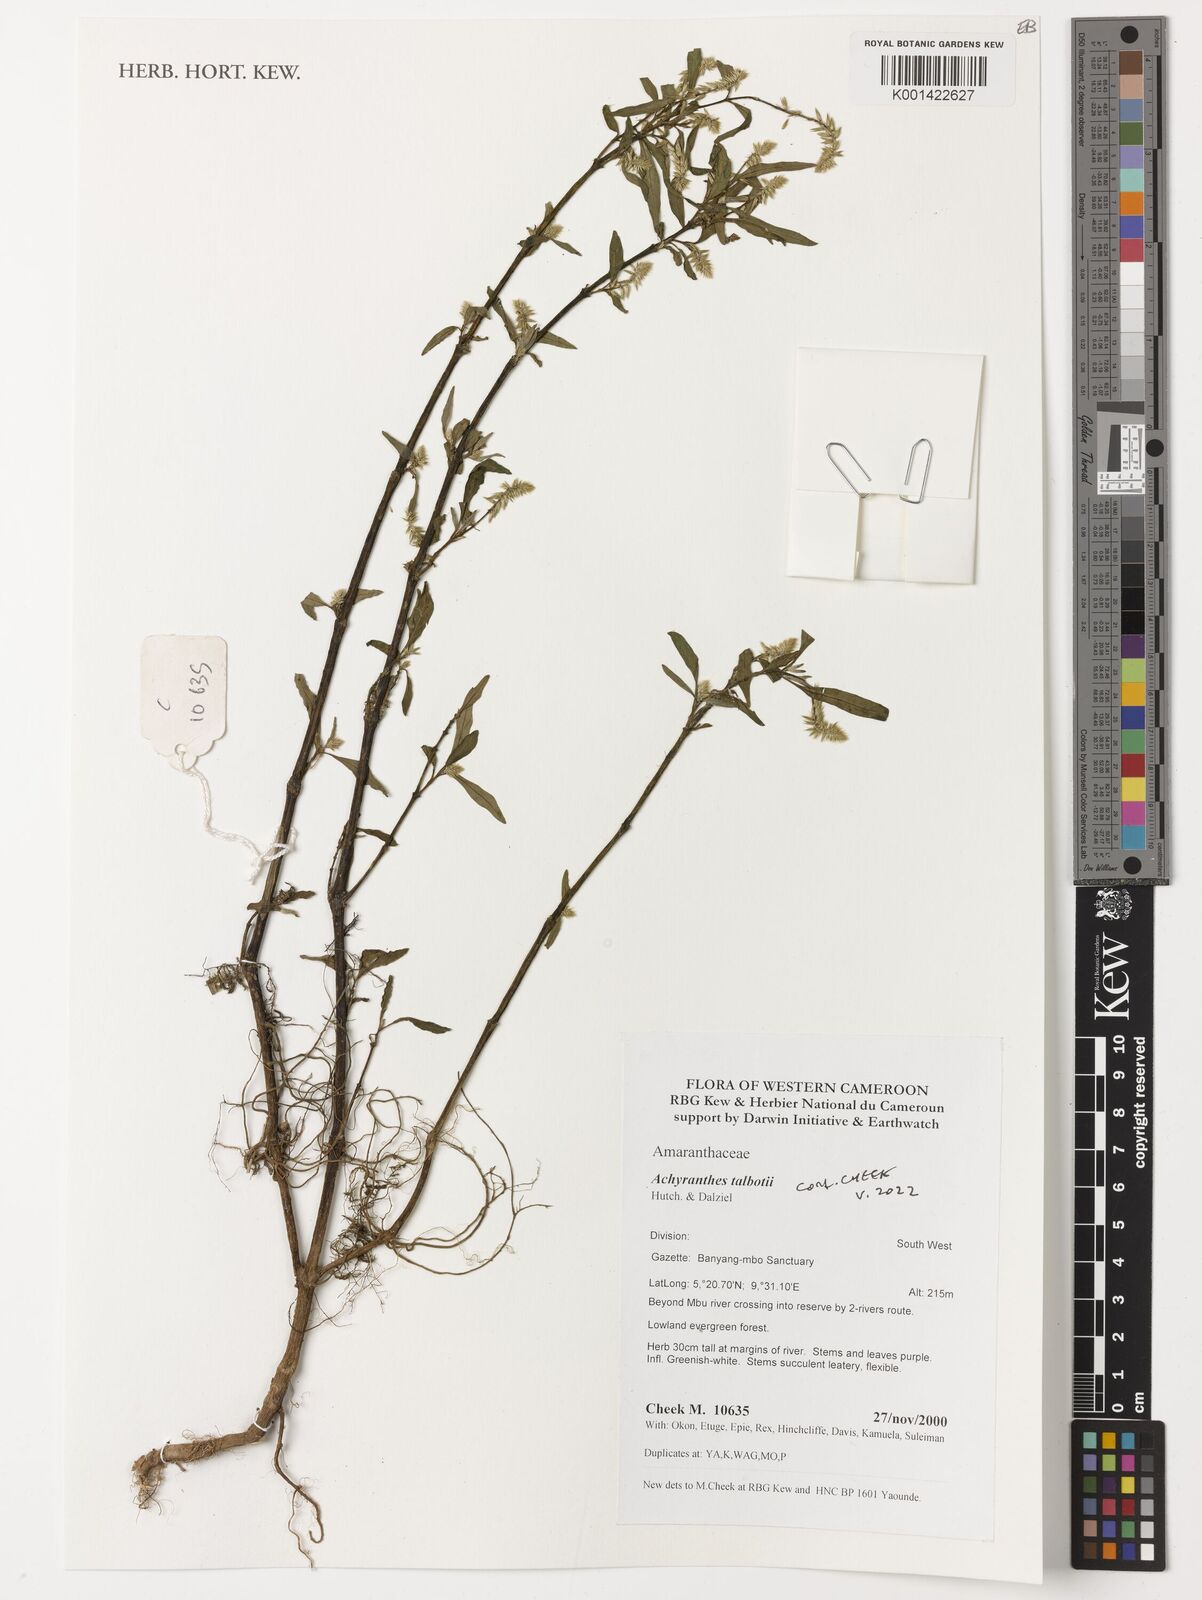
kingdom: Plantae
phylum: Tracheophyta
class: Magnoliopsida
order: Caryophyllales
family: Amaranthaceae
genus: Achyranthes
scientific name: Achyranthes talbotii
